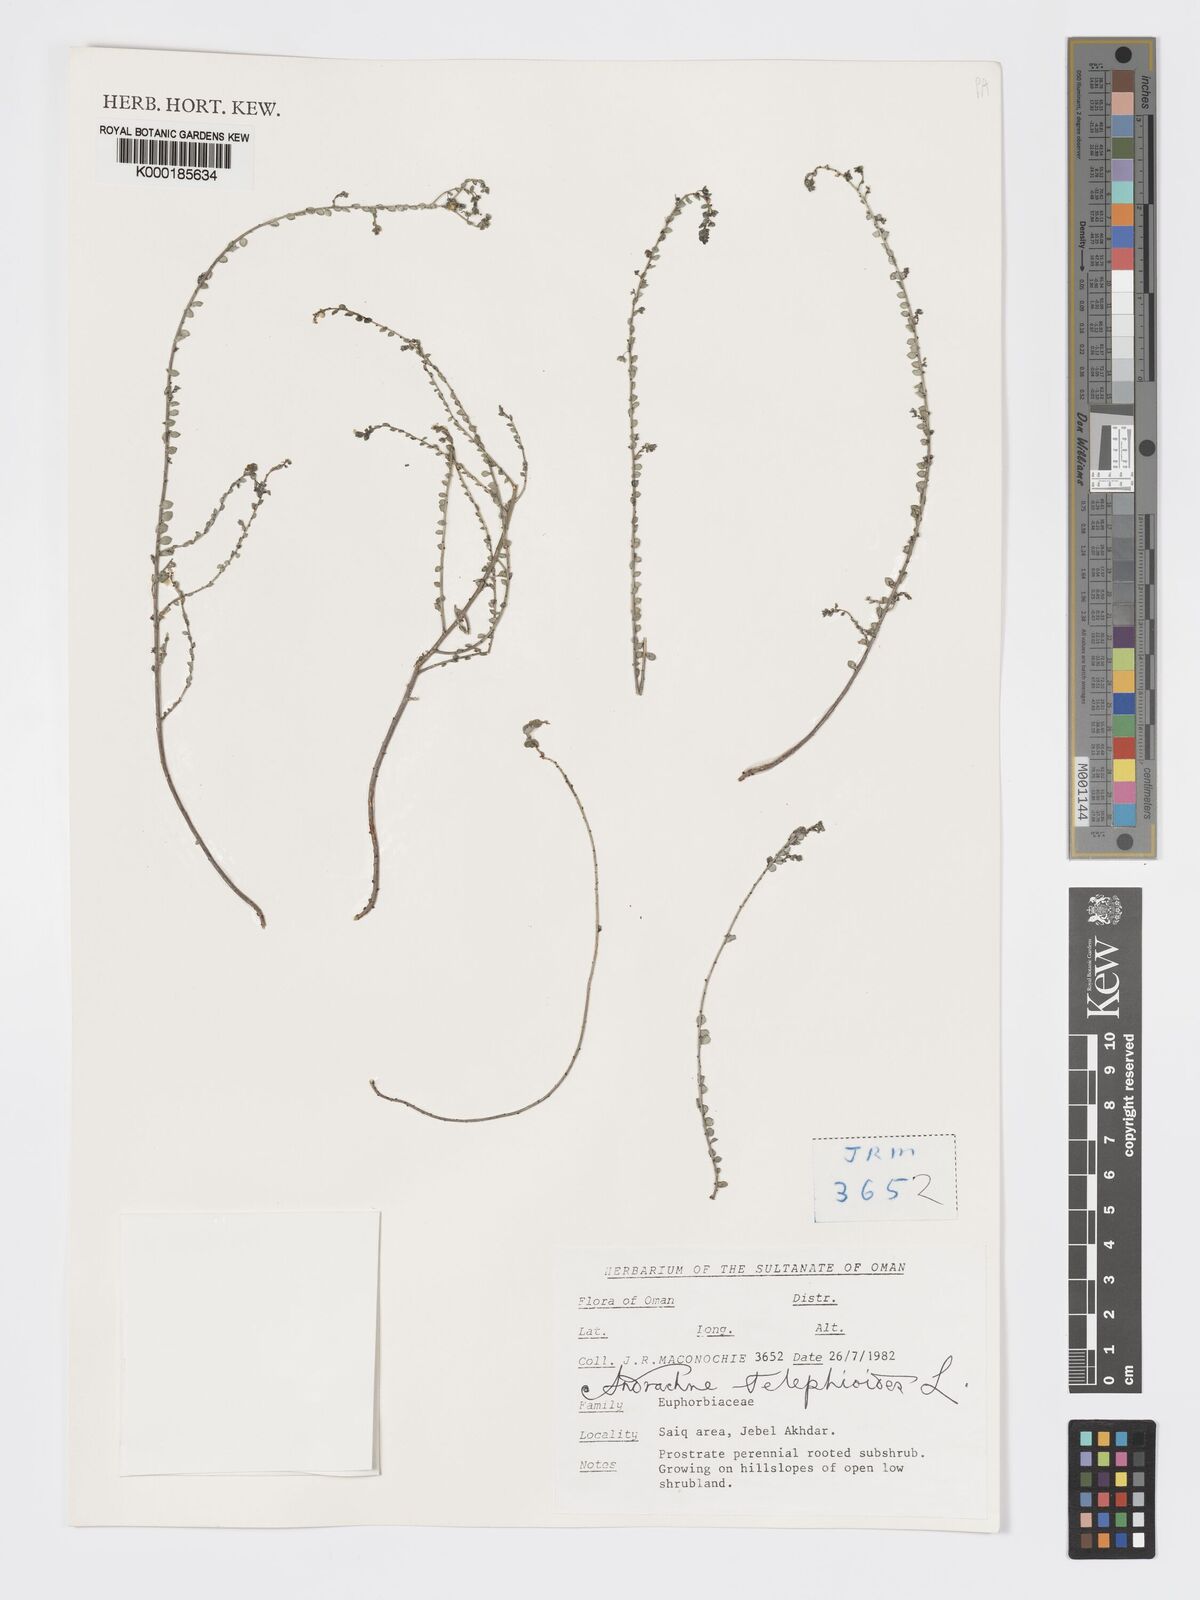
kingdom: Plantae
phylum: Tracheophyta
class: Magnoliopsida
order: Malpighiales
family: Phyllanthaceae
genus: Andrachne
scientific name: Andrachne telephioides
